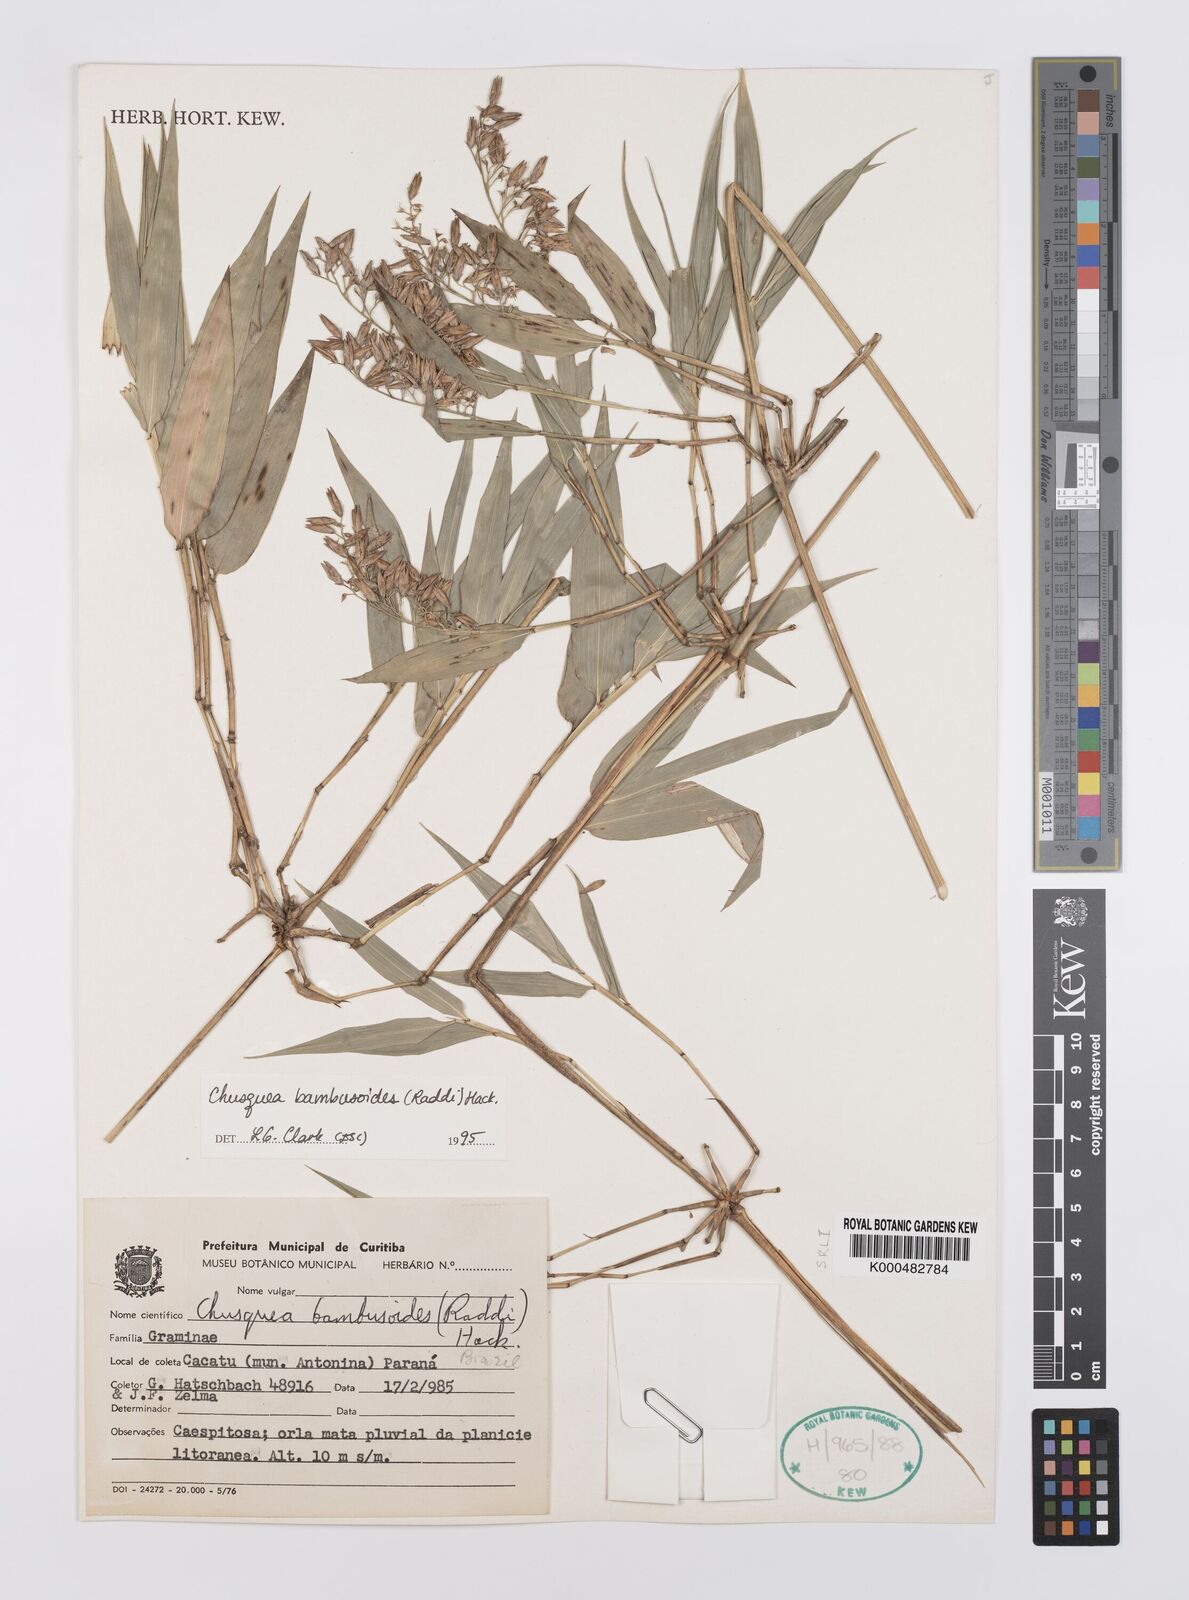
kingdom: Plantae
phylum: Tracheophyta
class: Liliopsida
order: Poales
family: Poaceae
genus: Chusquea
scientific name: Chusquea bambusoides
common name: Brazil scrambling bamboo
